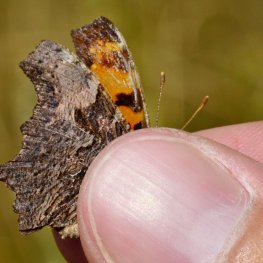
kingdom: Animalia
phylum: Arthropoda
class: Insecta
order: Lepidoptera
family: Nymphalidae
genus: Polygonia
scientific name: Polygonia progne
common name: Gray Comma
